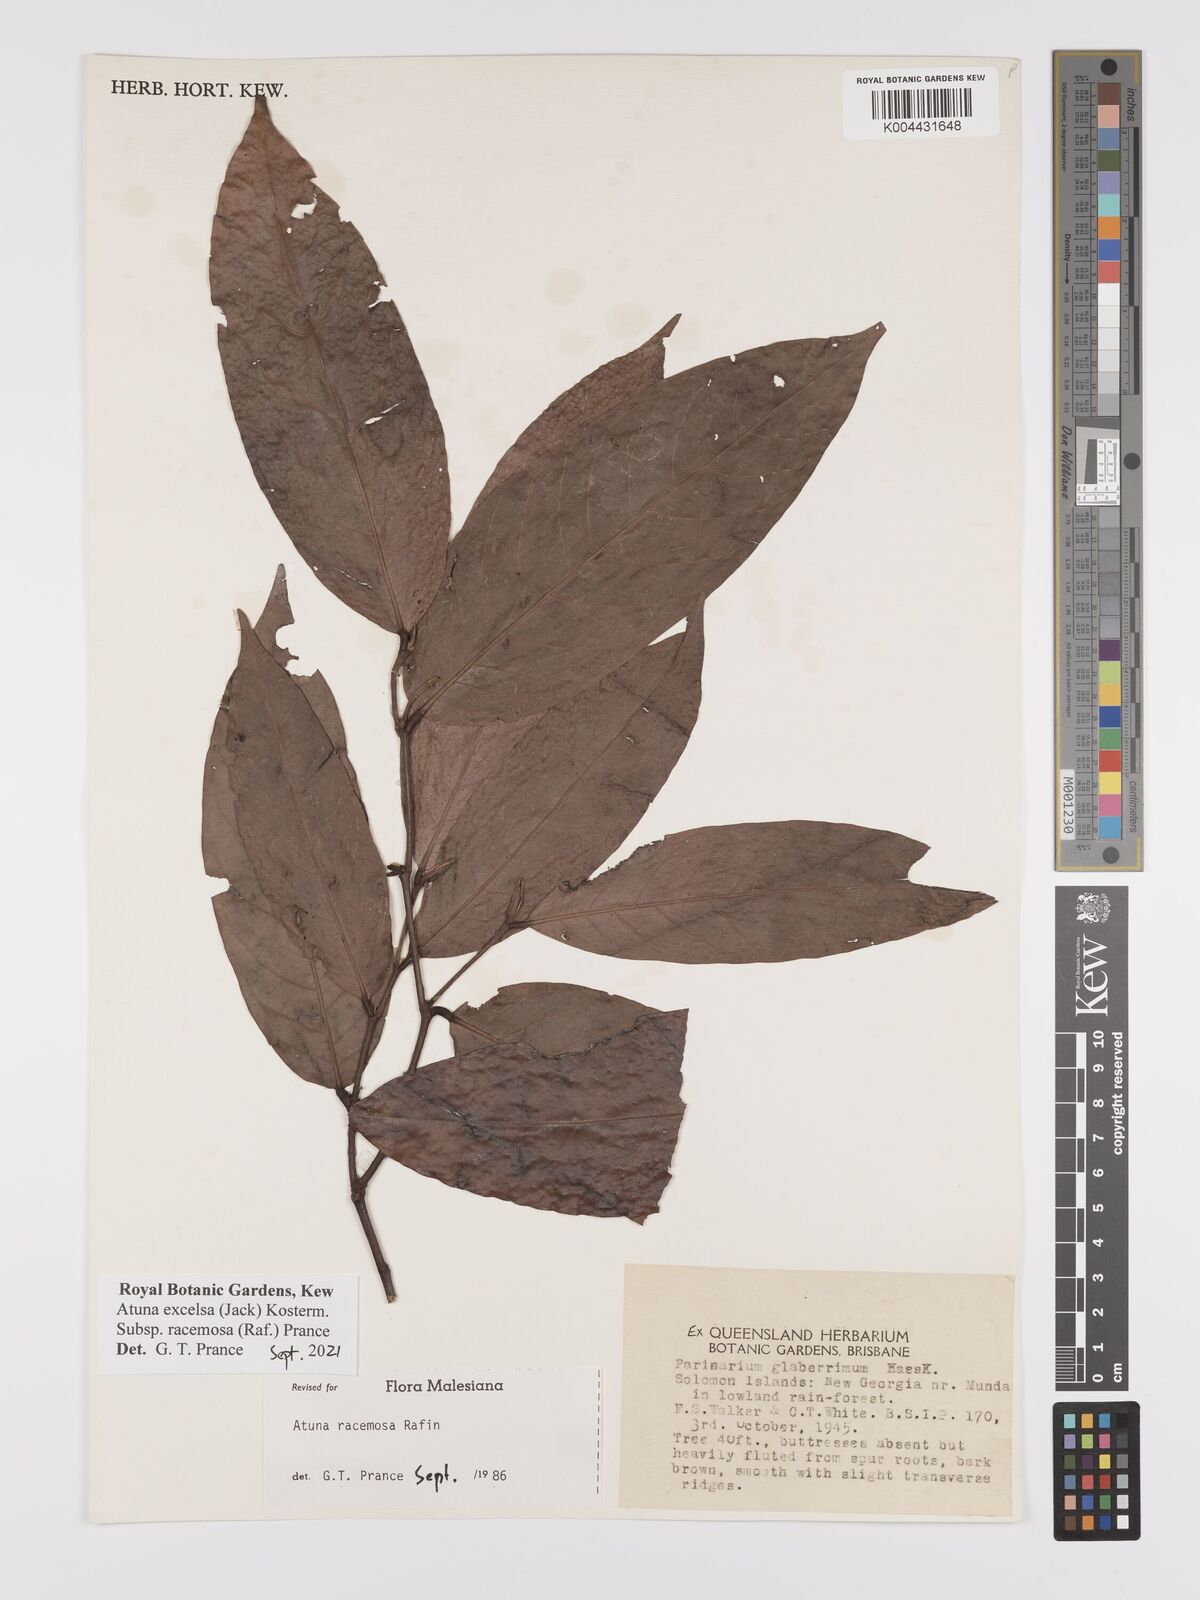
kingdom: Plantae
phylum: Tracheophyta
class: Magnoliopsida
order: Malpighiales
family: Chrysobalanaceae
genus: Atuna
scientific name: Atuna
